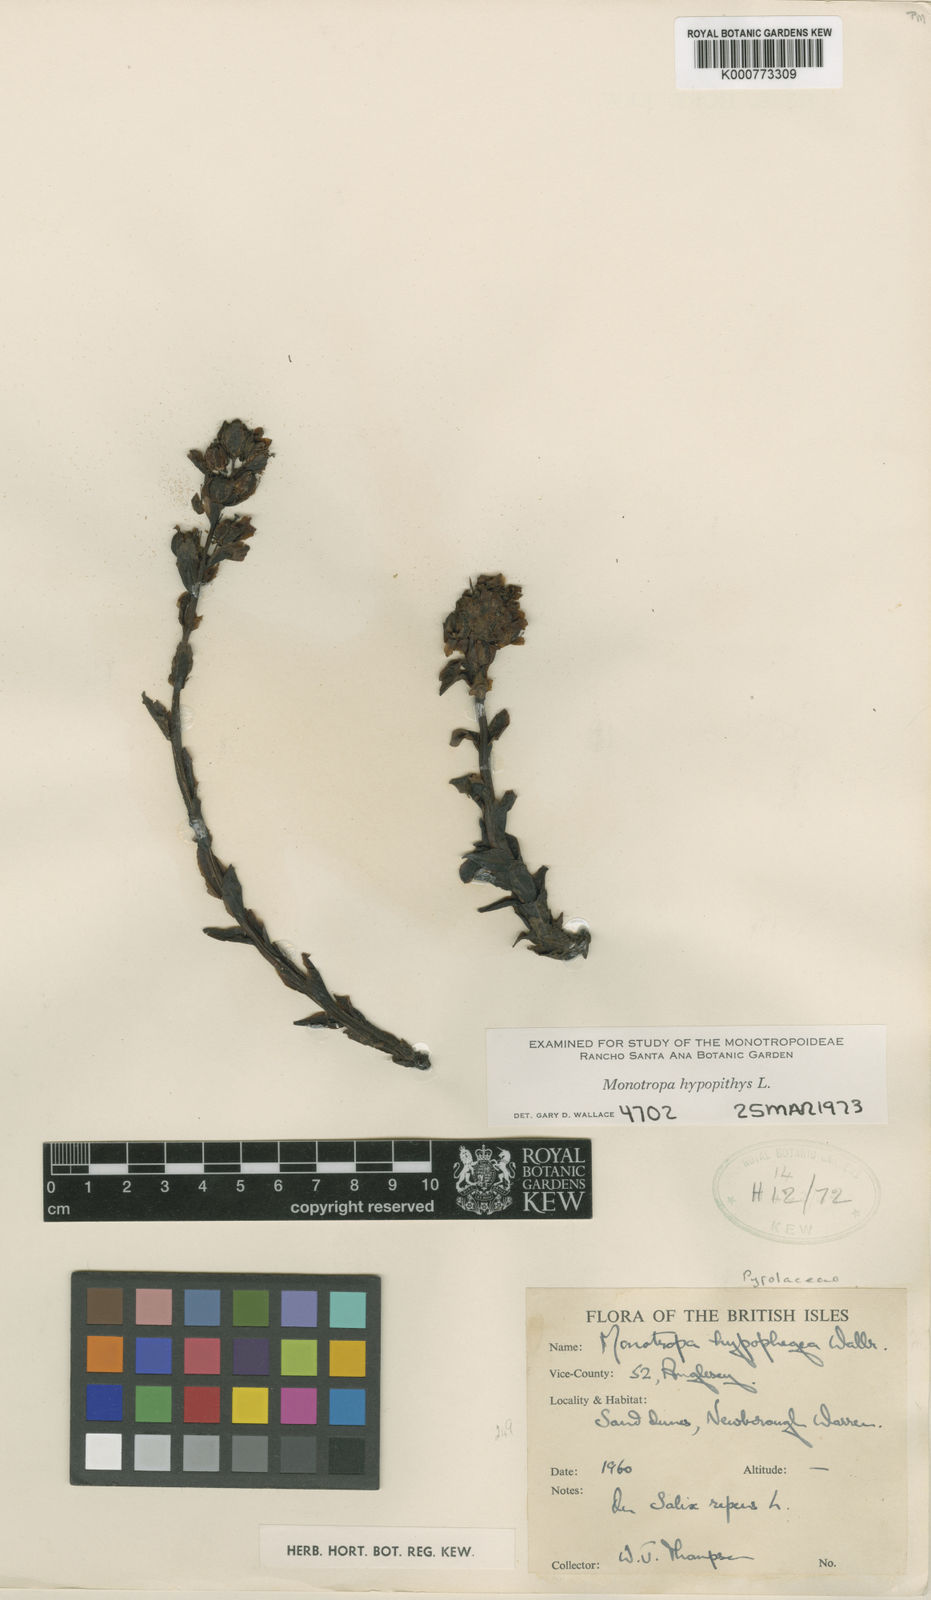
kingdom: Plantae
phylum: Tracheophyta
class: Magnoliopsida
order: Ericales
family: Ericaceae
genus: Monotropa
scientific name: Monotropa
